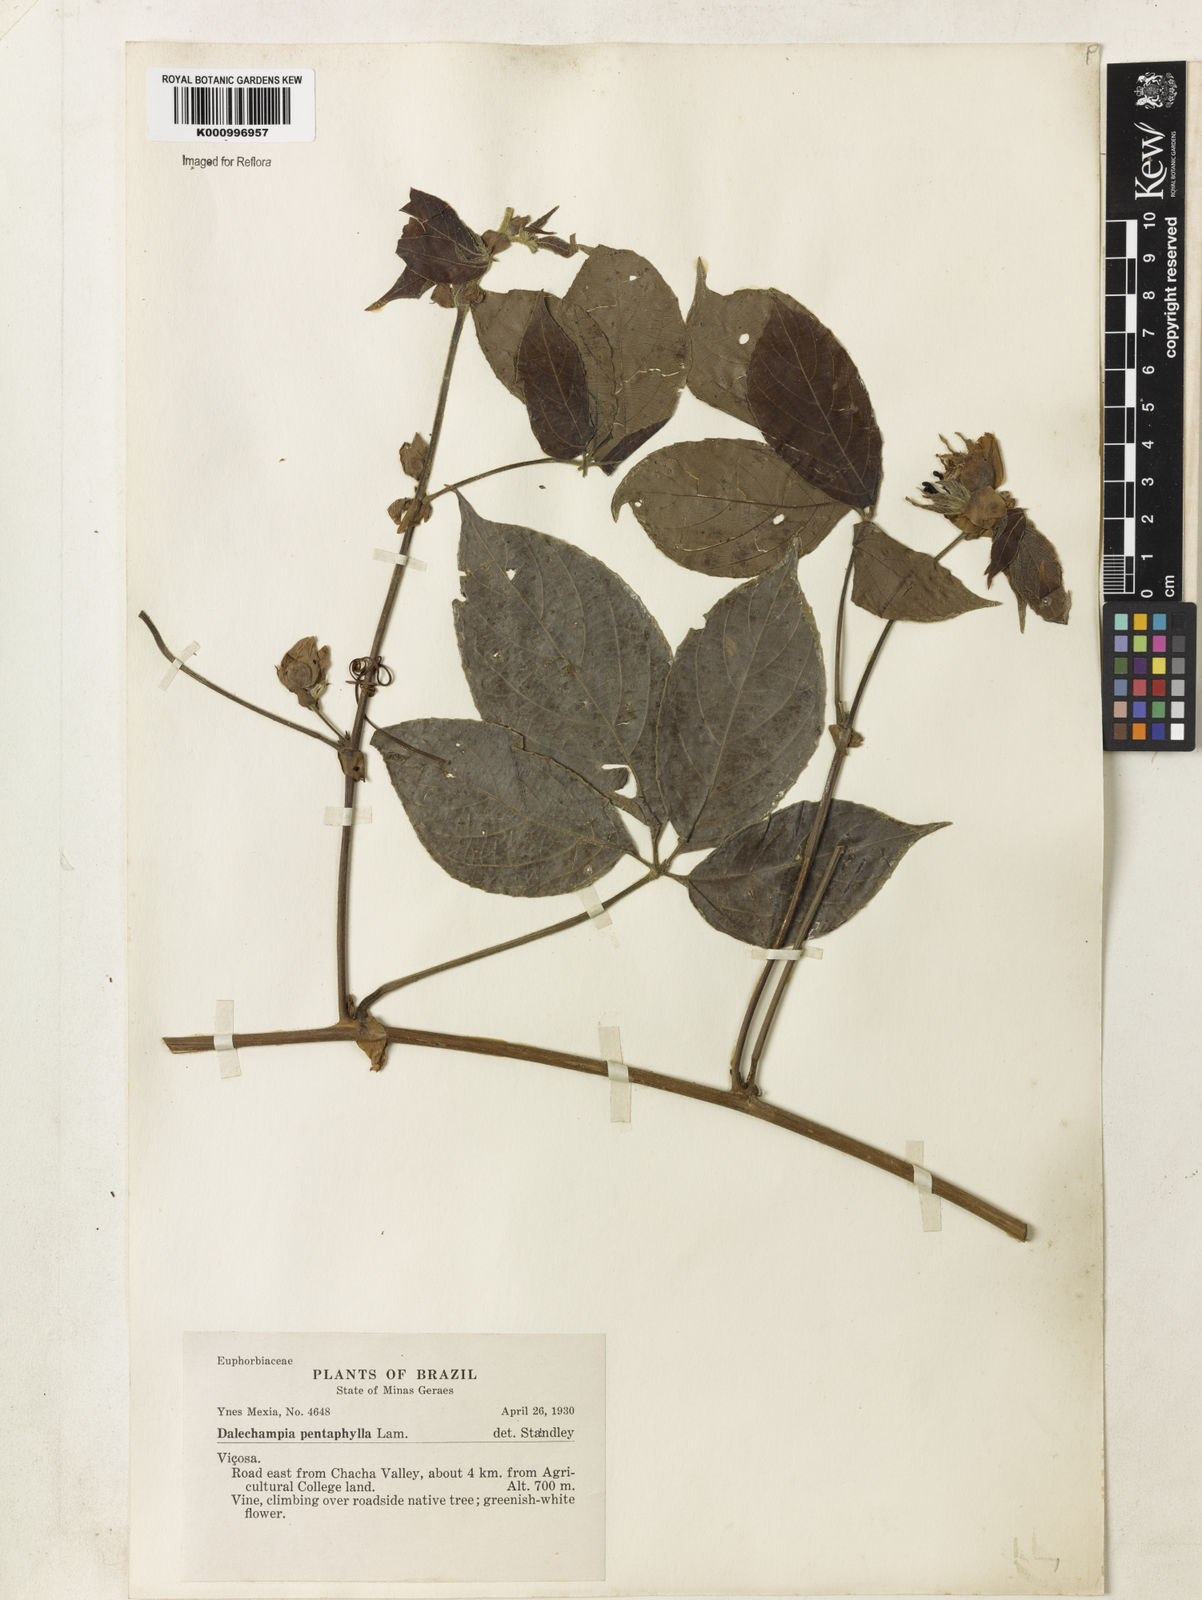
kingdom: Plantae
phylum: Tracheophyta
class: Magnoliopsida
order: Malpighiales
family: Euphorbiaceae
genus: Dalechampia
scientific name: Dalechampia pentaphylla
